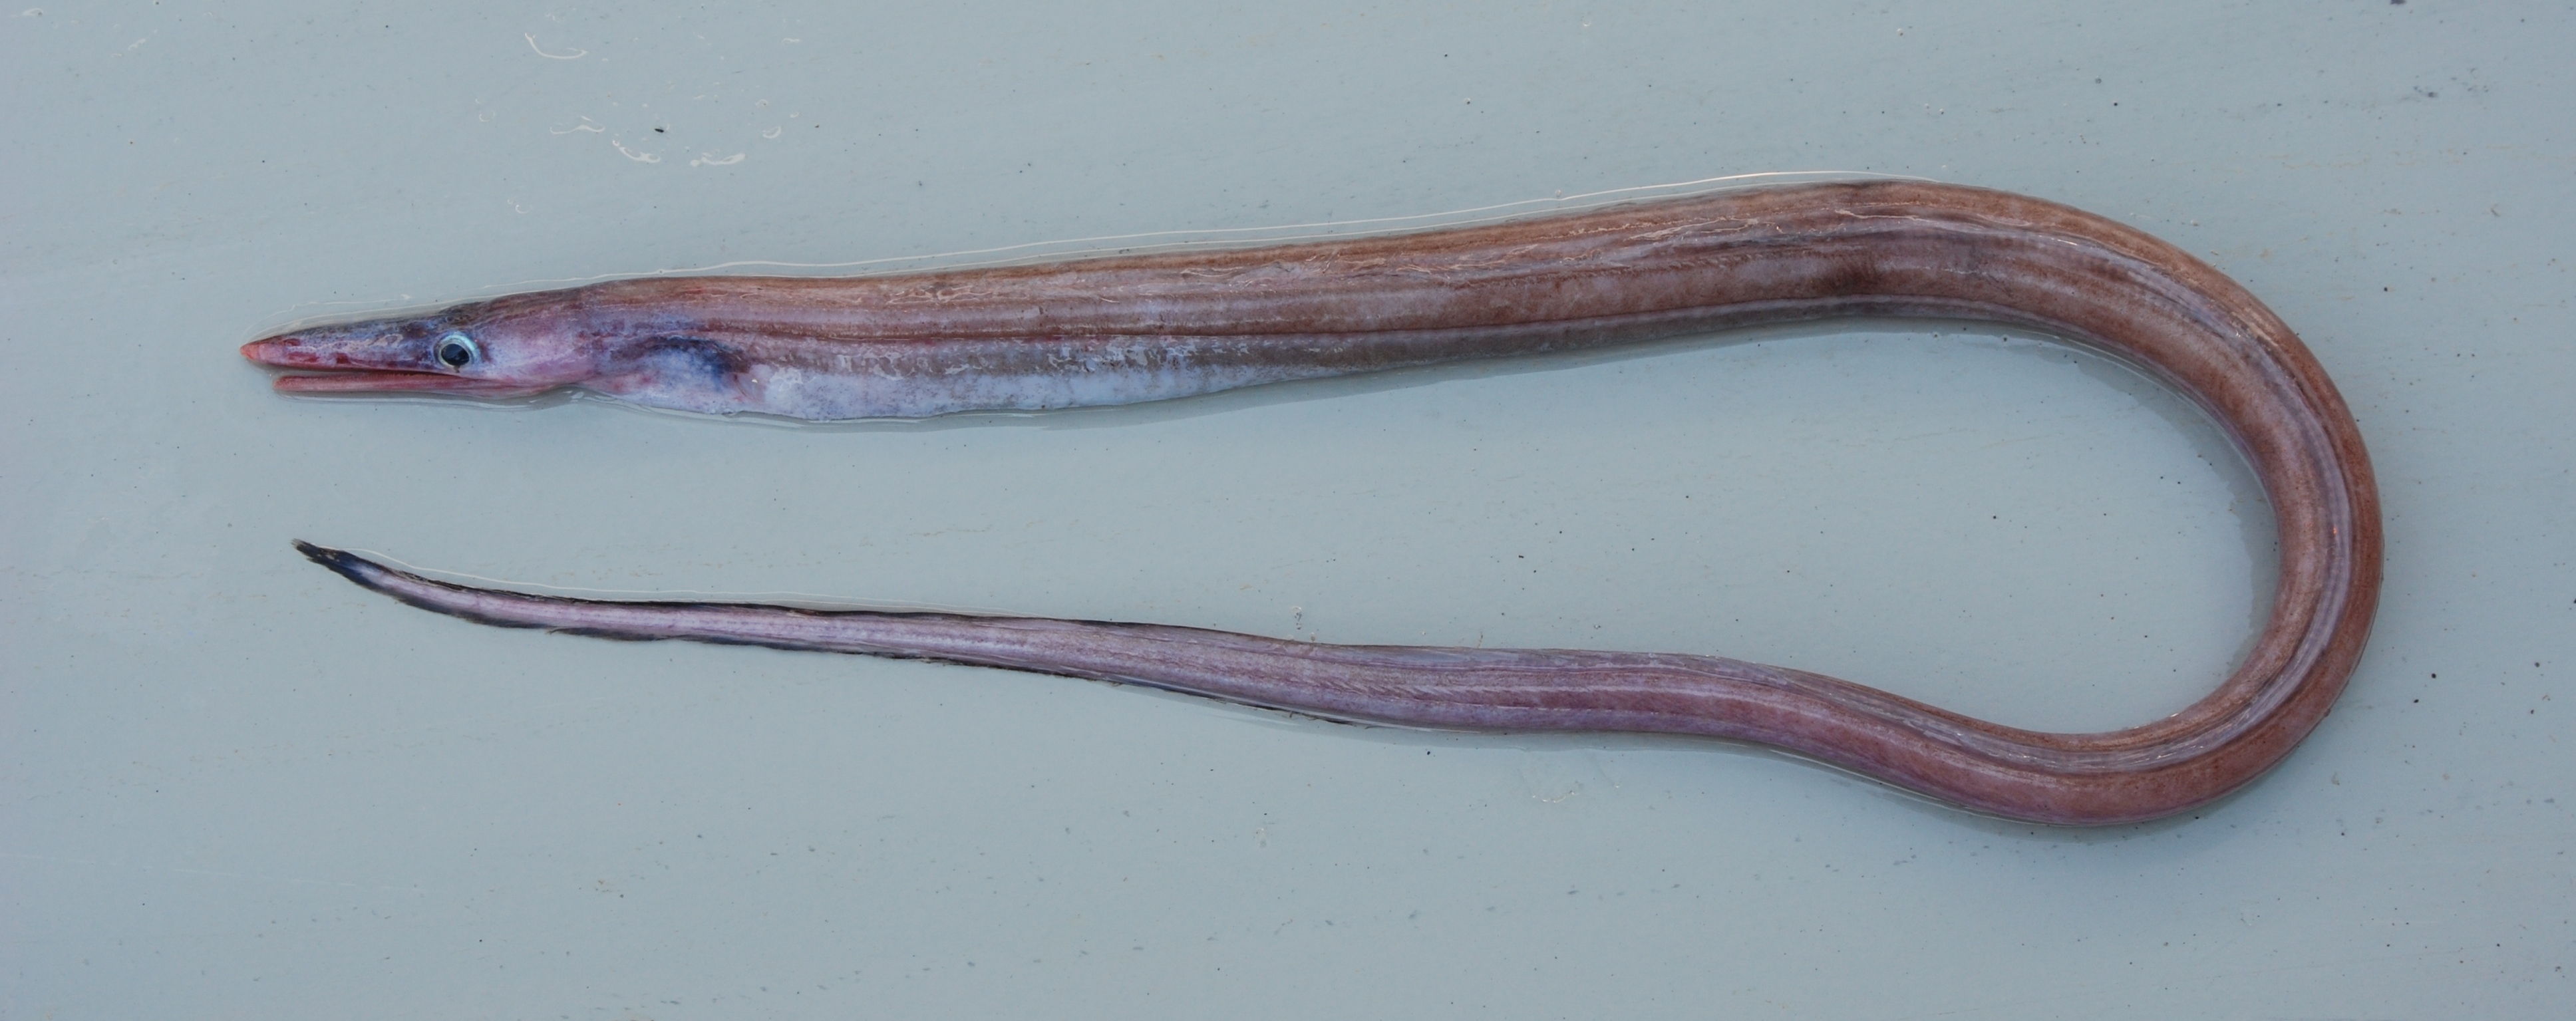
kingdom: Animalia
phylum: Chordata
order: Anguilliformes
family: Nettastomatidae
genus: Nettastoma
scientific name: Nettastoma parviceps
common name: Duck-billed eel
